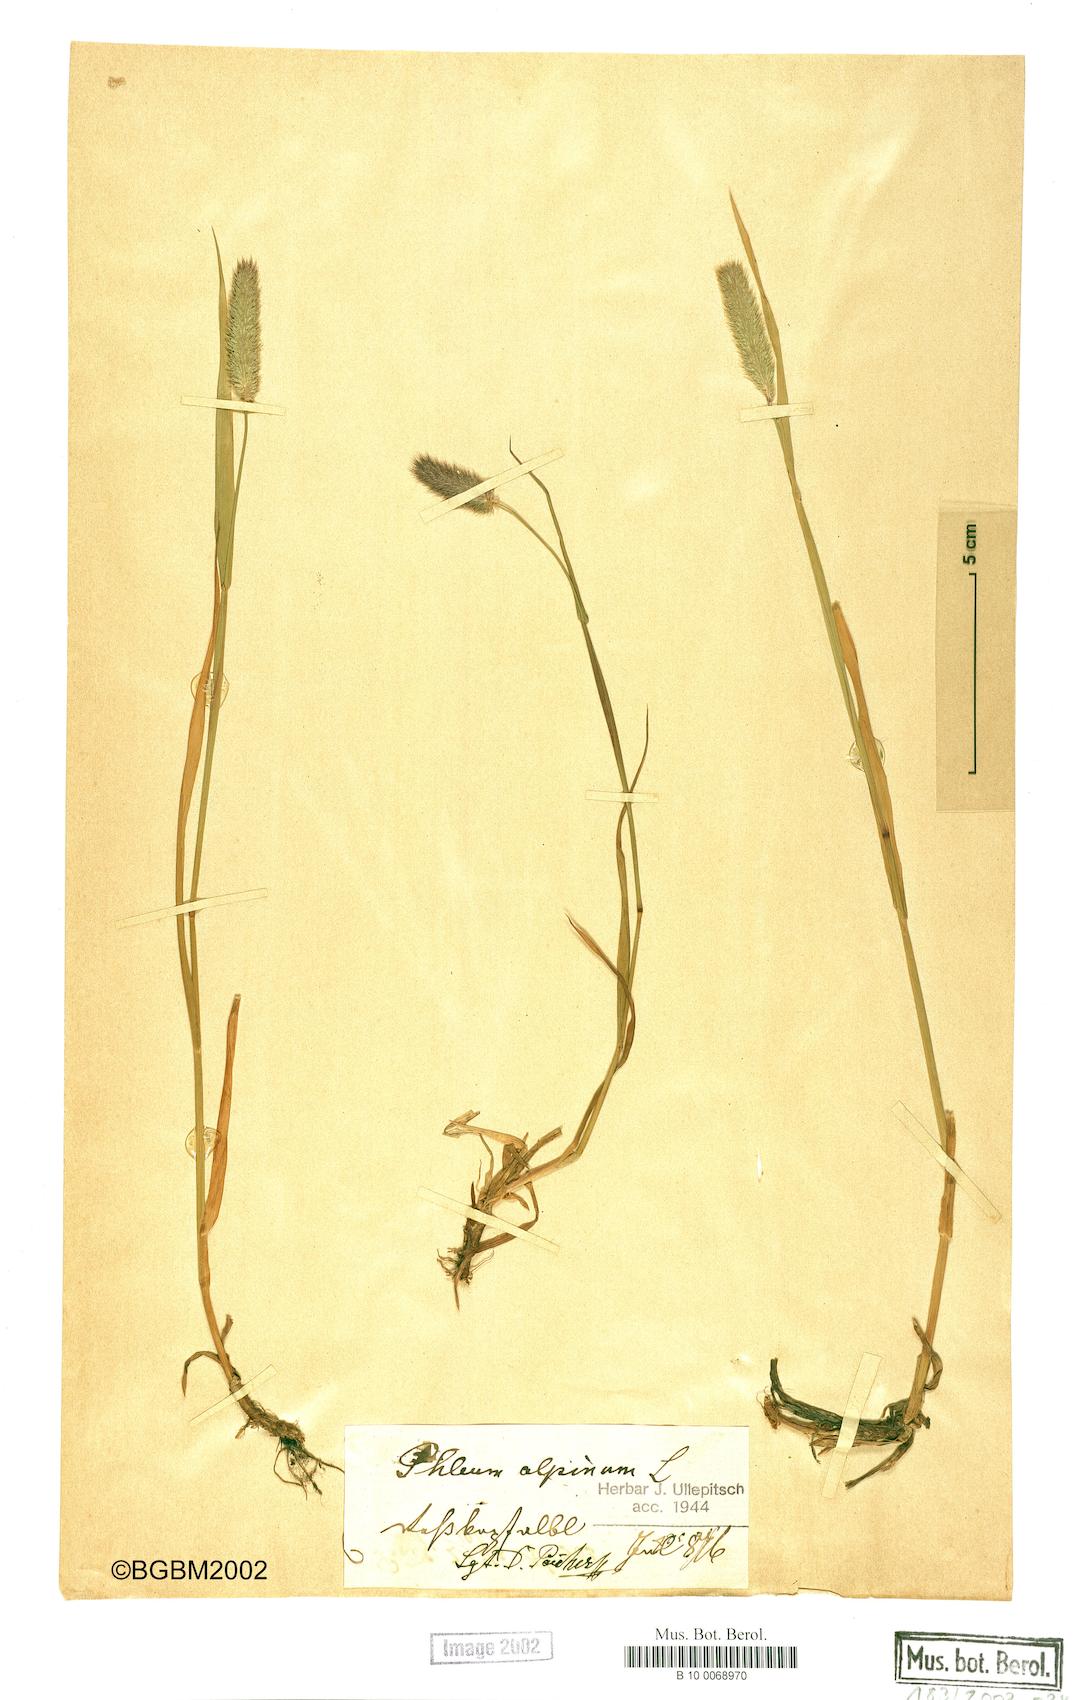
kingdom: Plantae
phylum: Tracheophyta
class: Liliopsida
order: Poales
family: Poaceae
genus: Phleum
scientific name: Phleum alpinum
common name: Alpine cat's-tail
